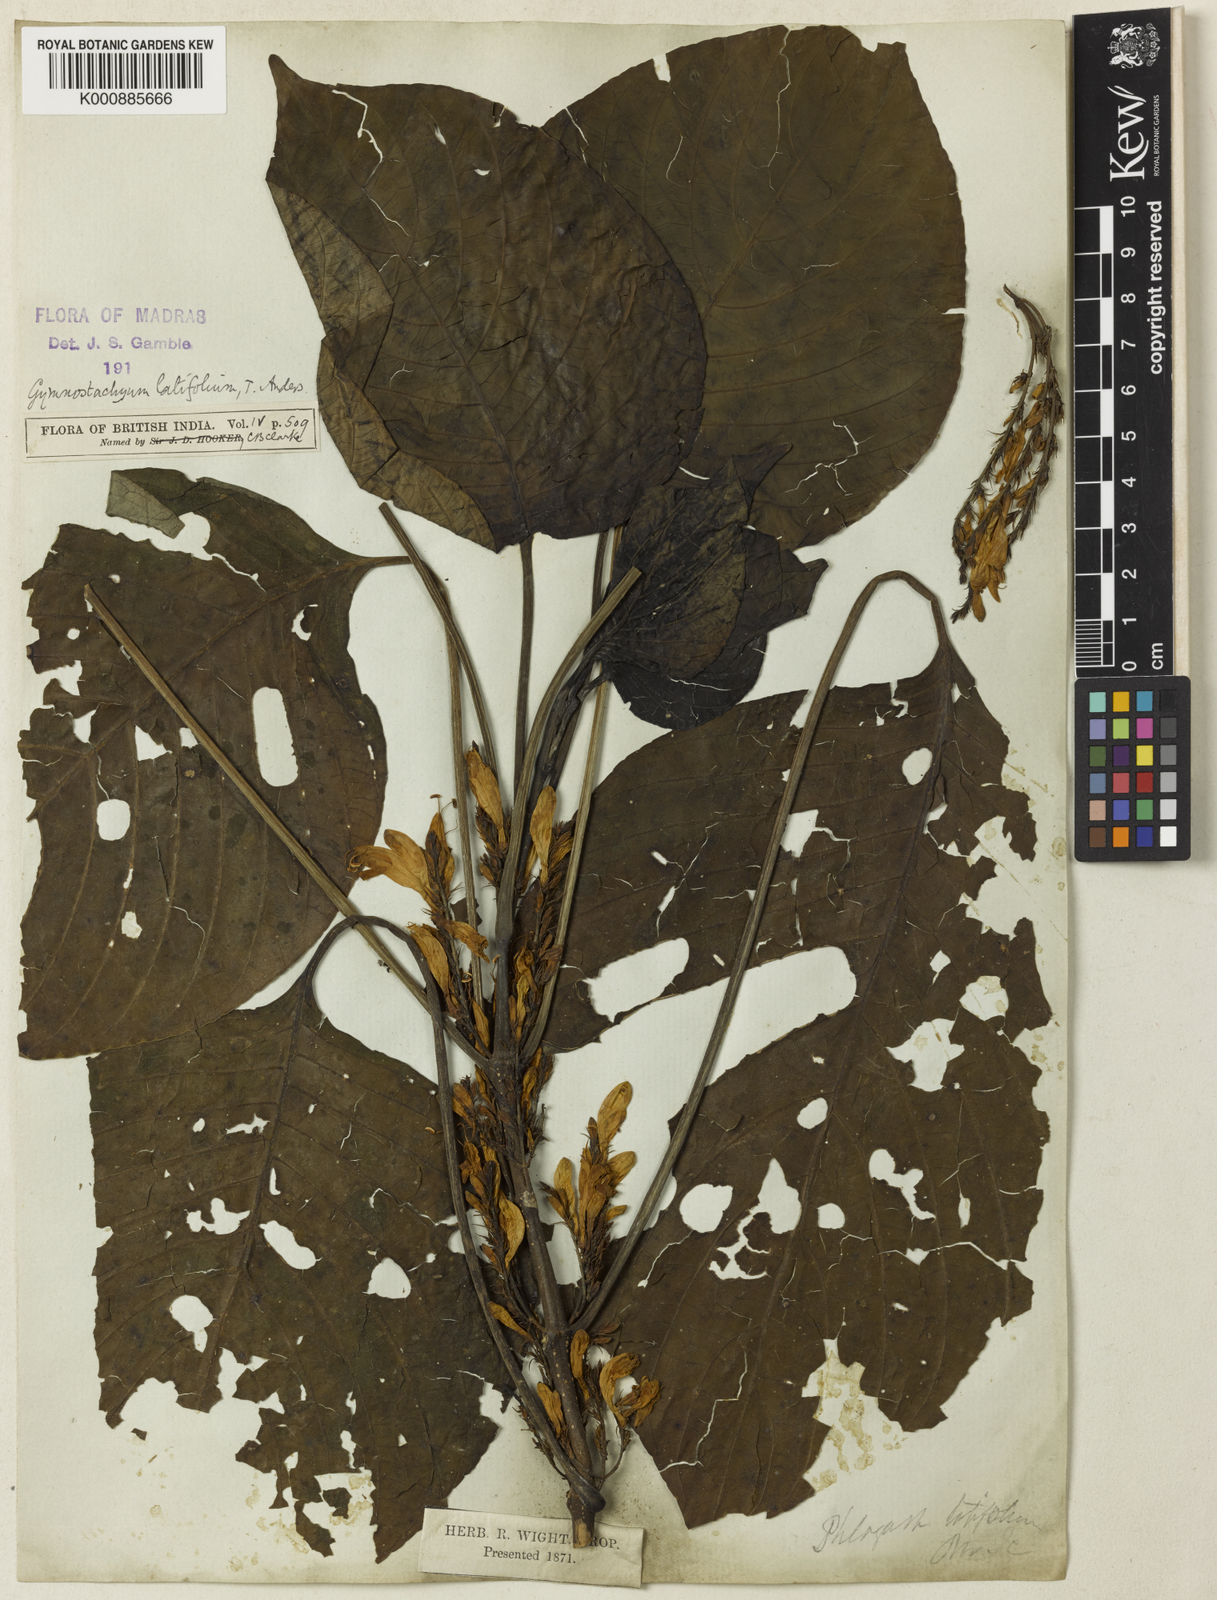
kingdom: Plantae
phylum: Tracheophyta
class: Magnoliopsida
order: Lamiales
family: Acanthaceae
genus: Gymnostachyum
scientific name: Gymnostachyum latifolium
